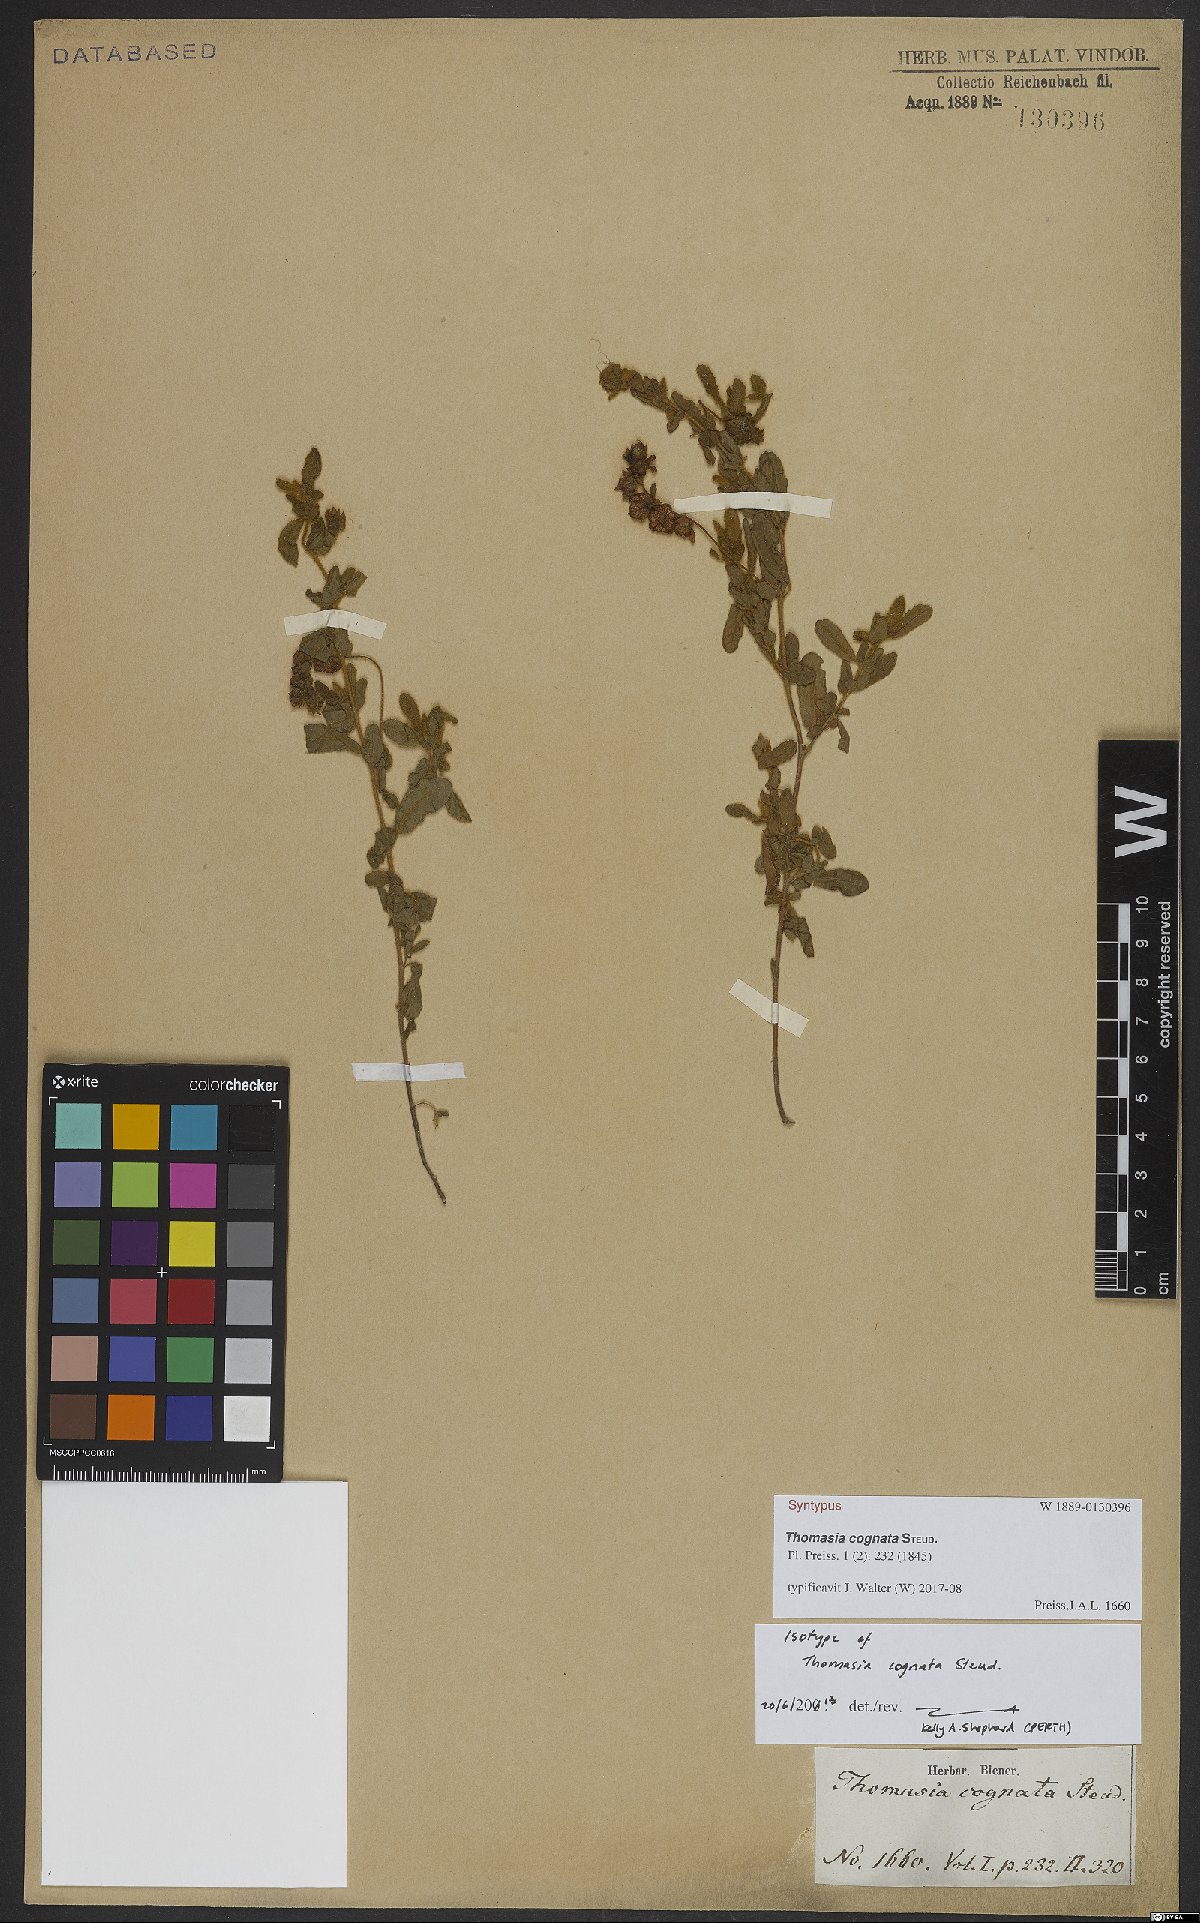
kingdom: Plantae
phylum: Tracheophyta
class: Magnoliopsida
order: Malvales
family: Malvaceae
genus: Thomasia
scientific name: Thomasia cognata
